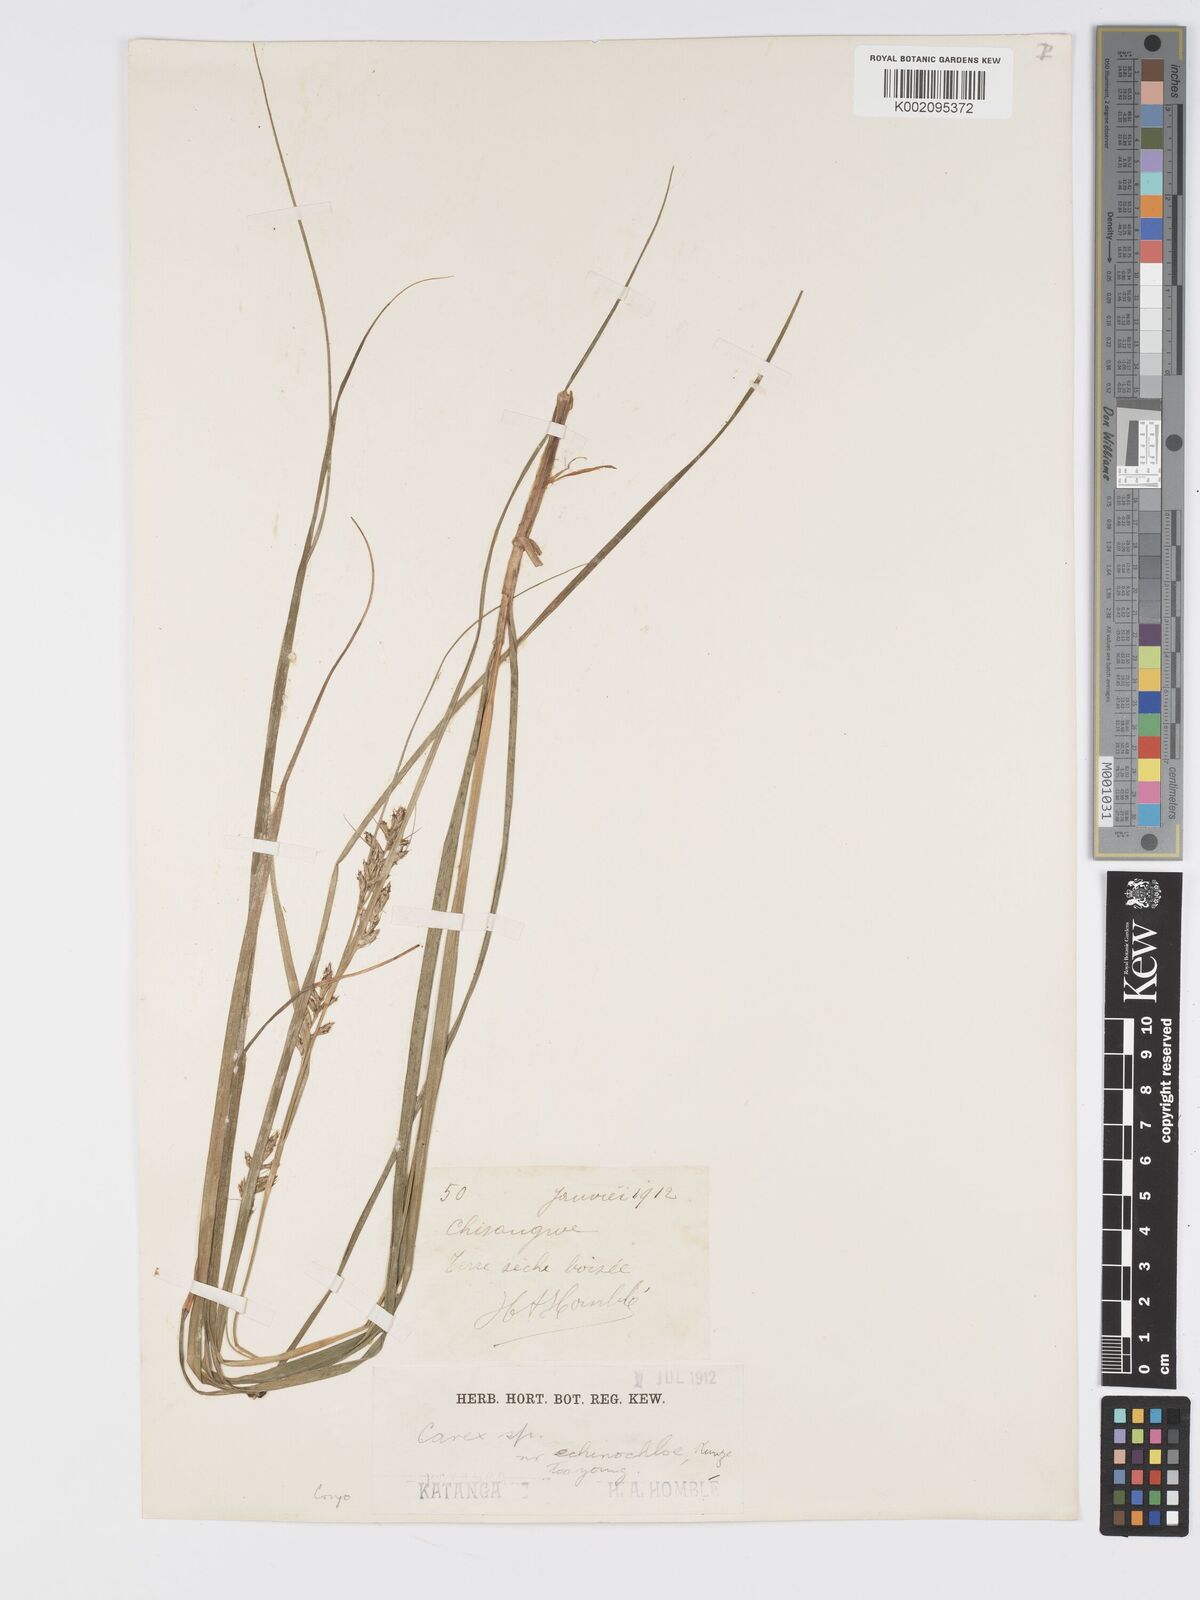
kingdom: Plantae
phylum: Tracheophyta
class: Liliopsida
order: Poales
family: Cyperaceae
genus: Carex
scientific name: Carex macrophyllidion
